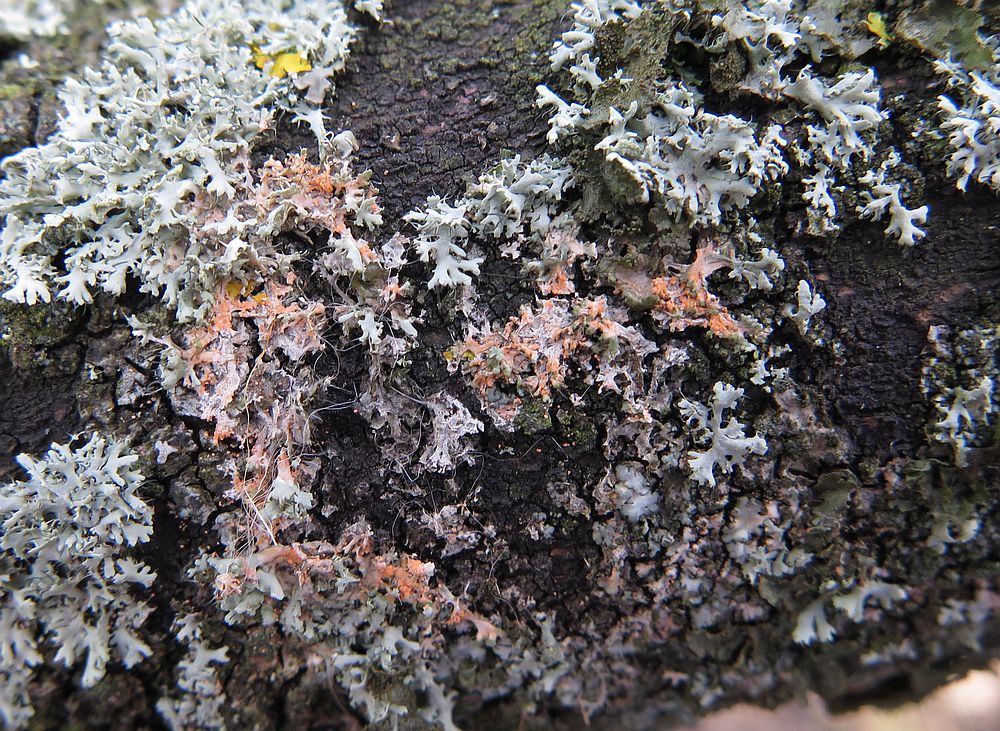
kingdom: Fungi
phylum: Basidiomycota
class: Agaricomycetes
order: Corticiales
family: Corticiaceae
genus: Erythricium
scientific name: Erythricium aurantiacum
